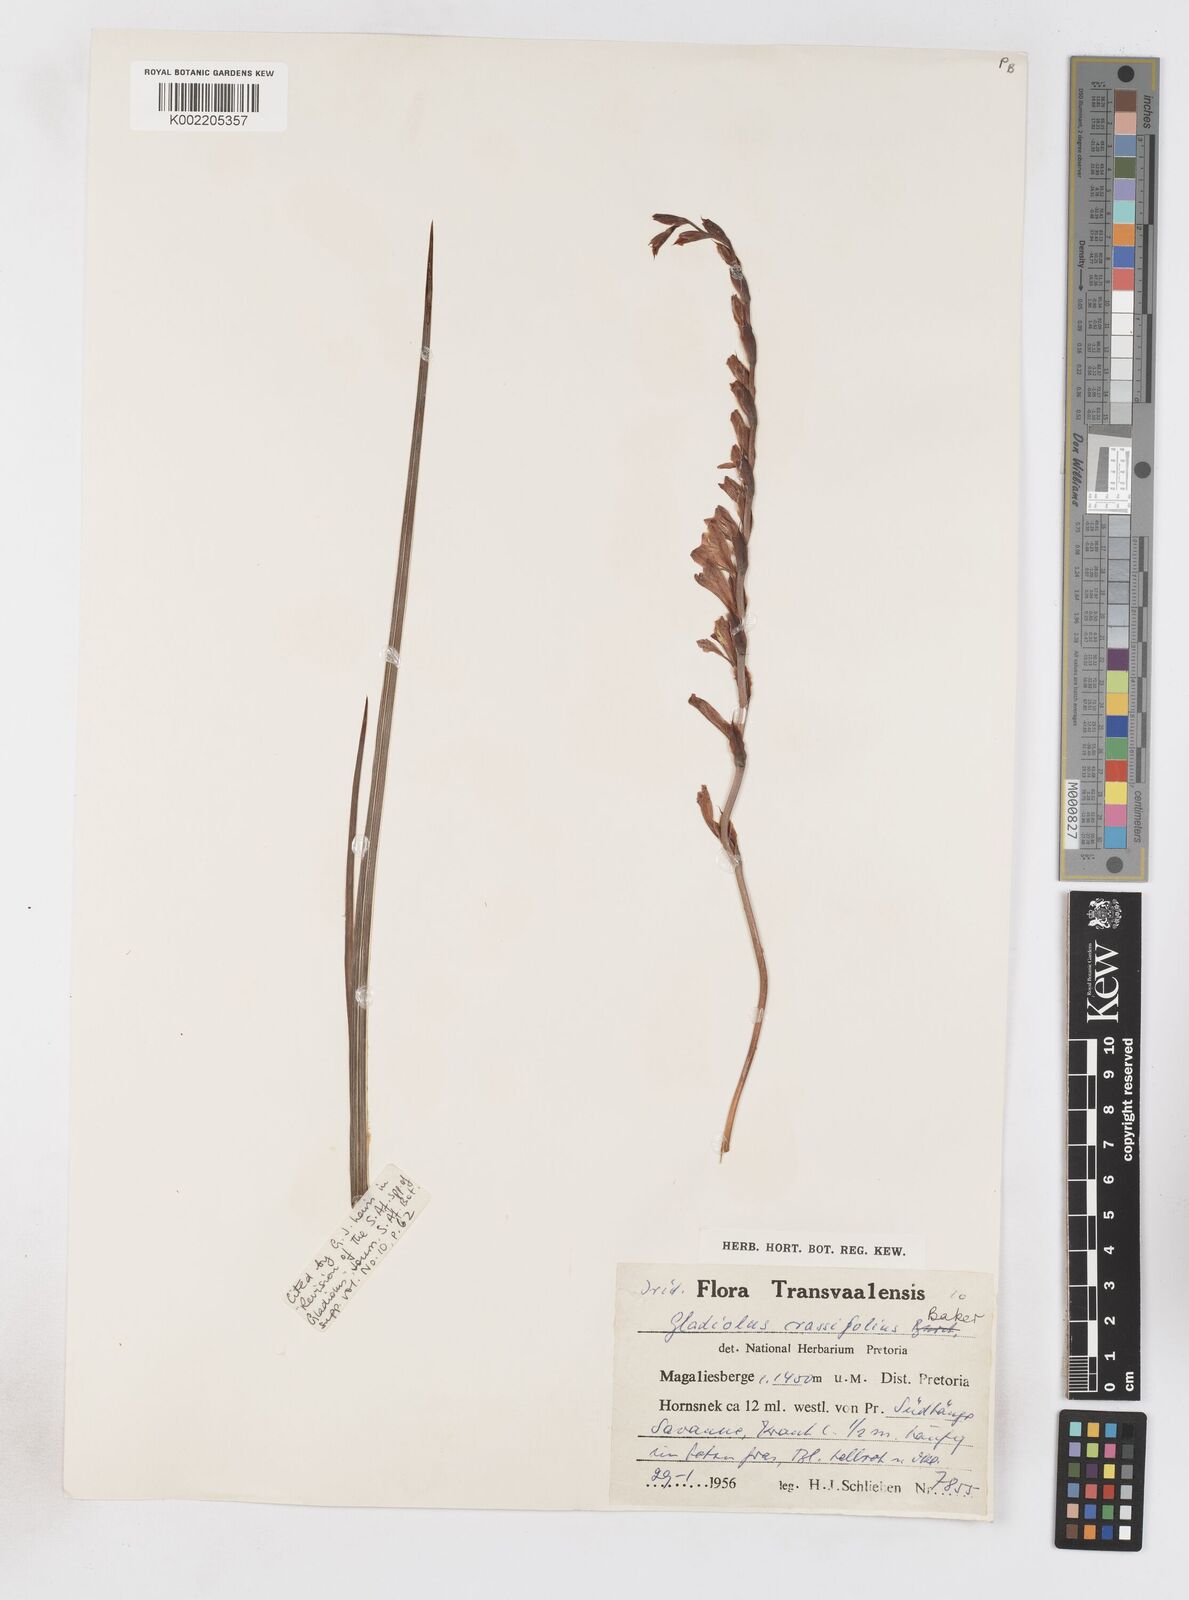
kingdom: Plantae
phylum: Tracheophyta
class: Liliopsida
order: Asparagales
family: Iridaceae
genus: Gladiolus
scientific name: Gladiolus crassifolius
